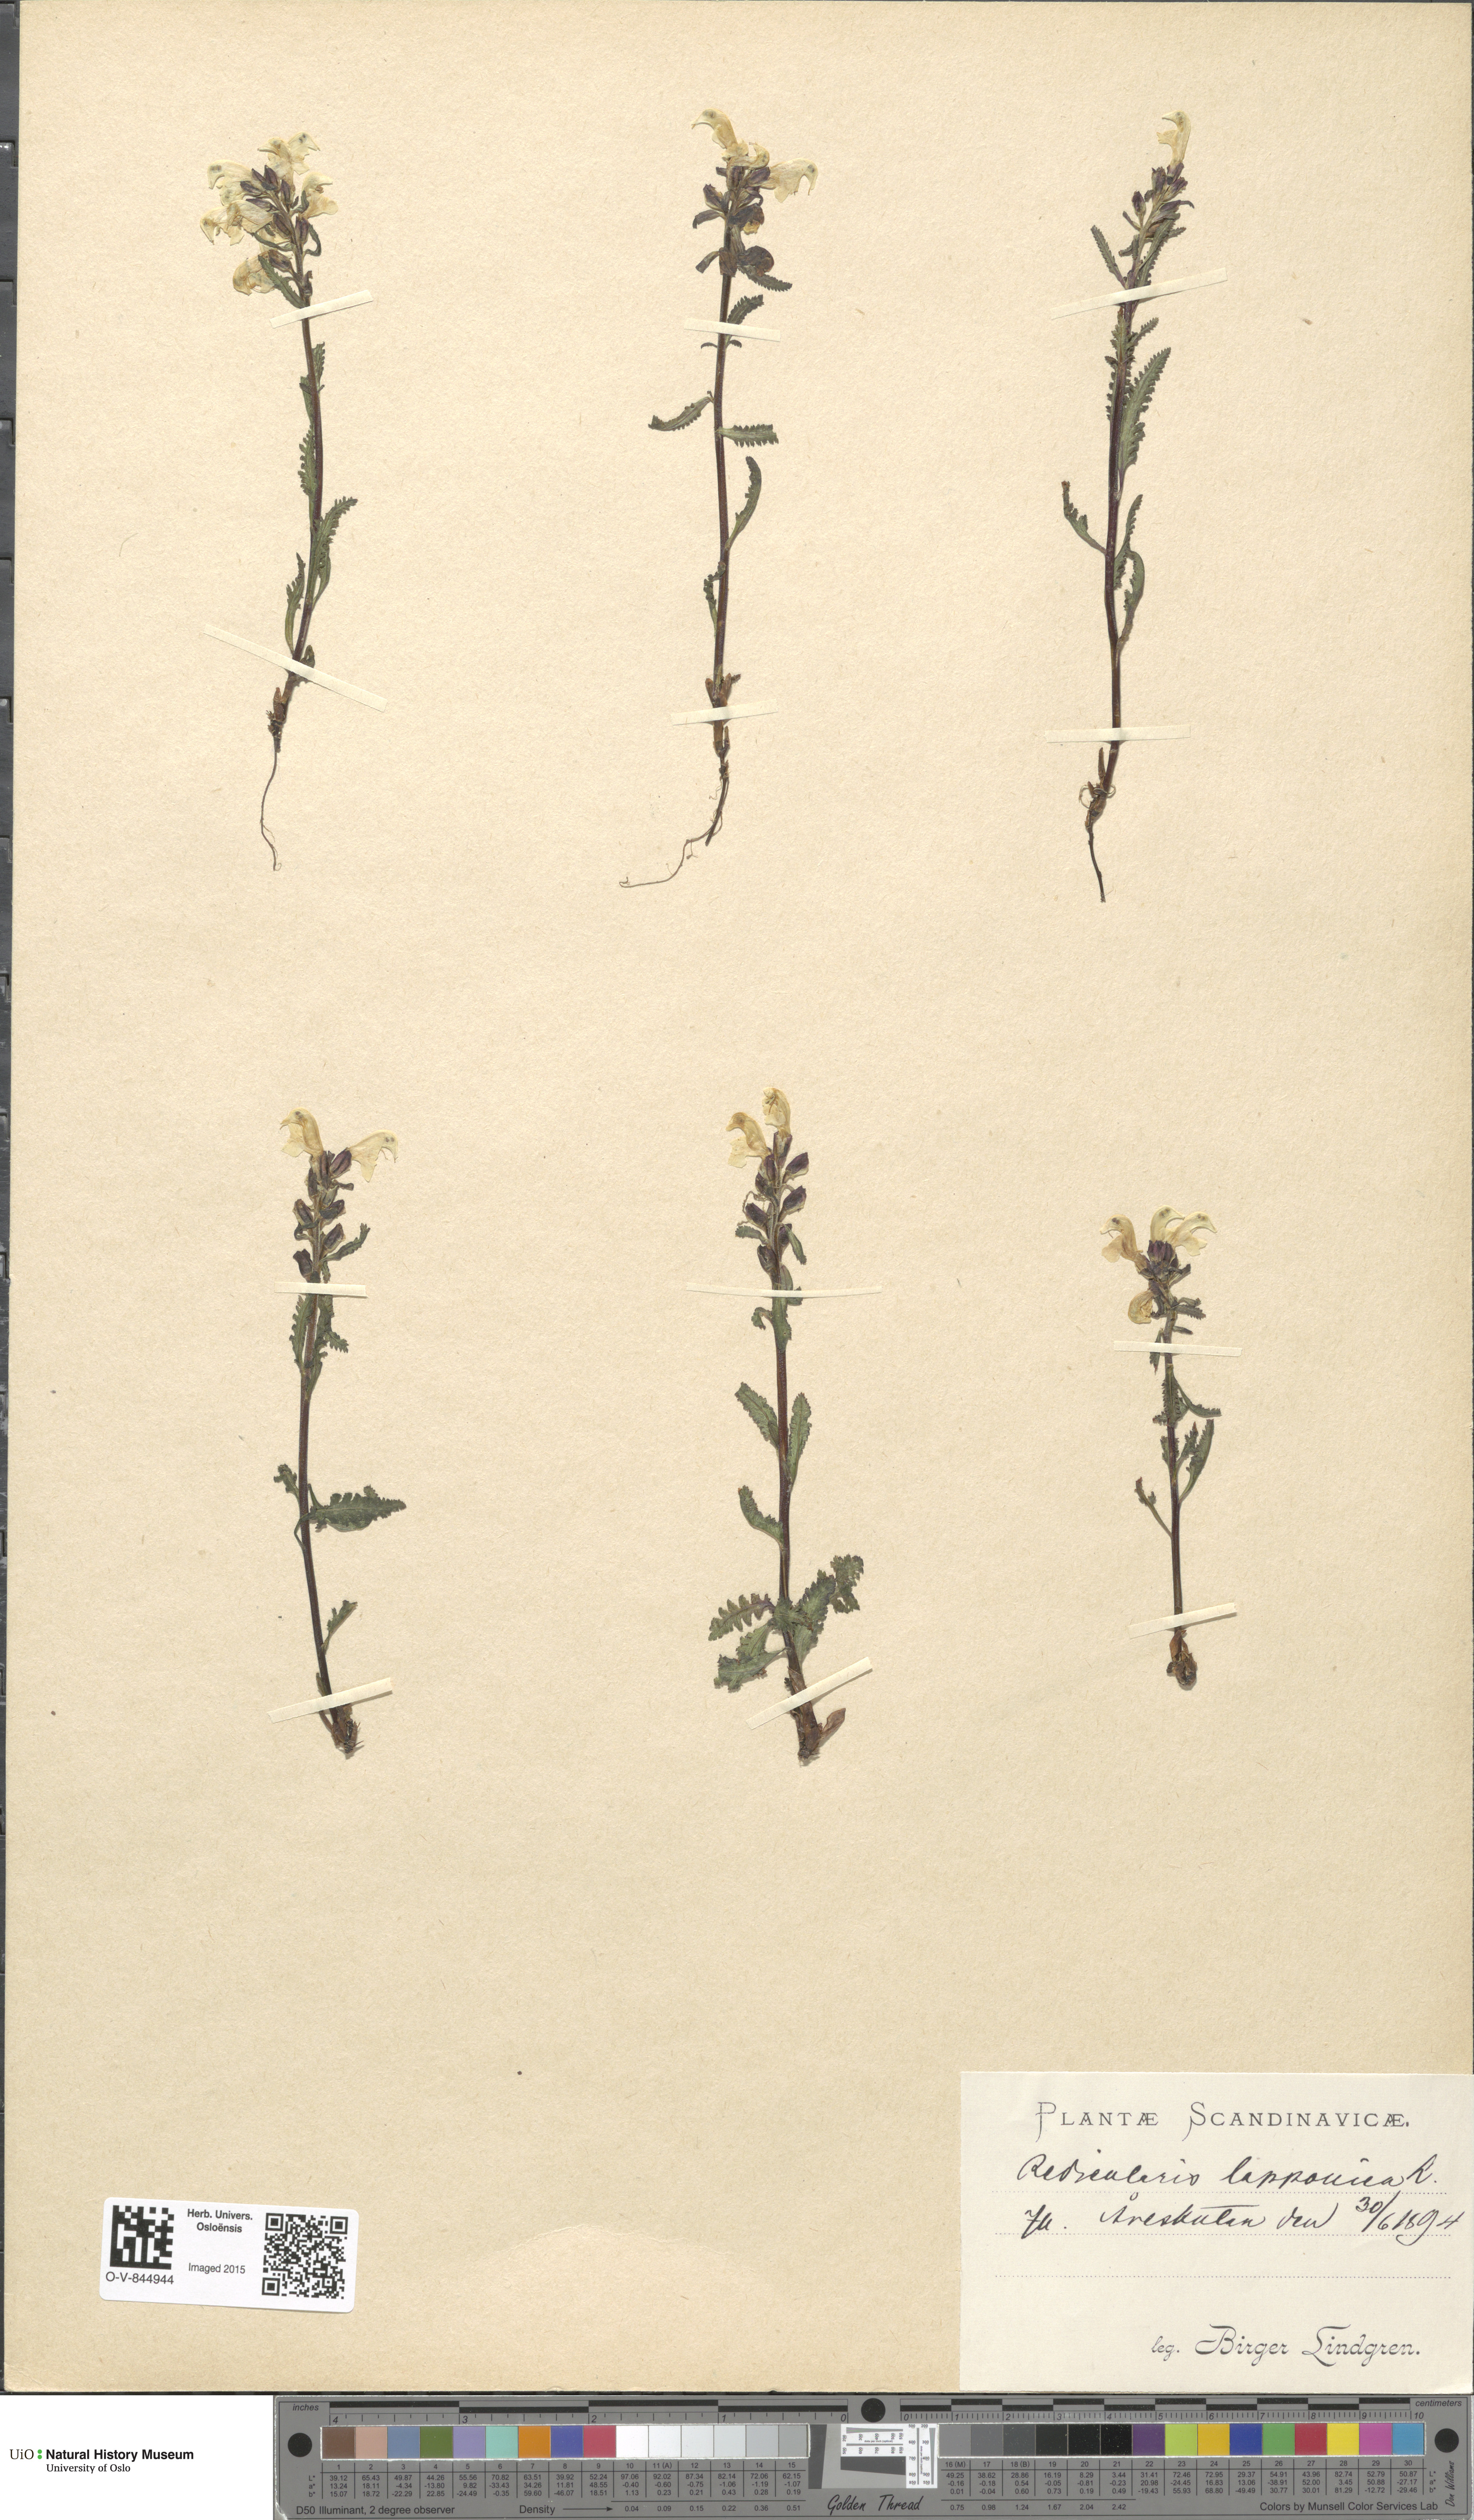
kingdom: Plantae
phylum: Tracheophyta
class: Magnoliopsida
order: Lamiales
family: Orobanchaceae
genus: Pedicularis
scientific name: Pedicularis lapponica
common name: Lapland lousewort
